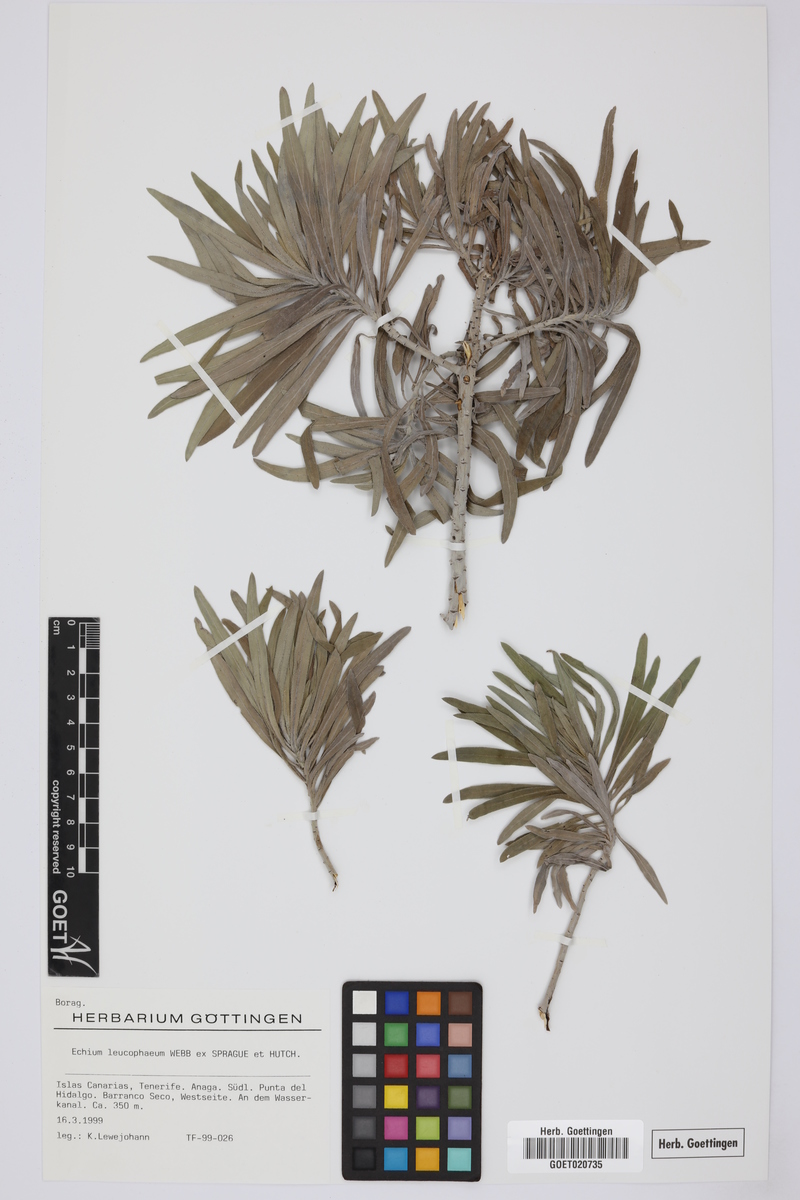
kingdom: Plantae
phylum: Tracheophyta
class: Magnoliopsida
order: Boraginales
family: Boraginaceae
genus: Echium
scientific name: Echium leucophaeum
